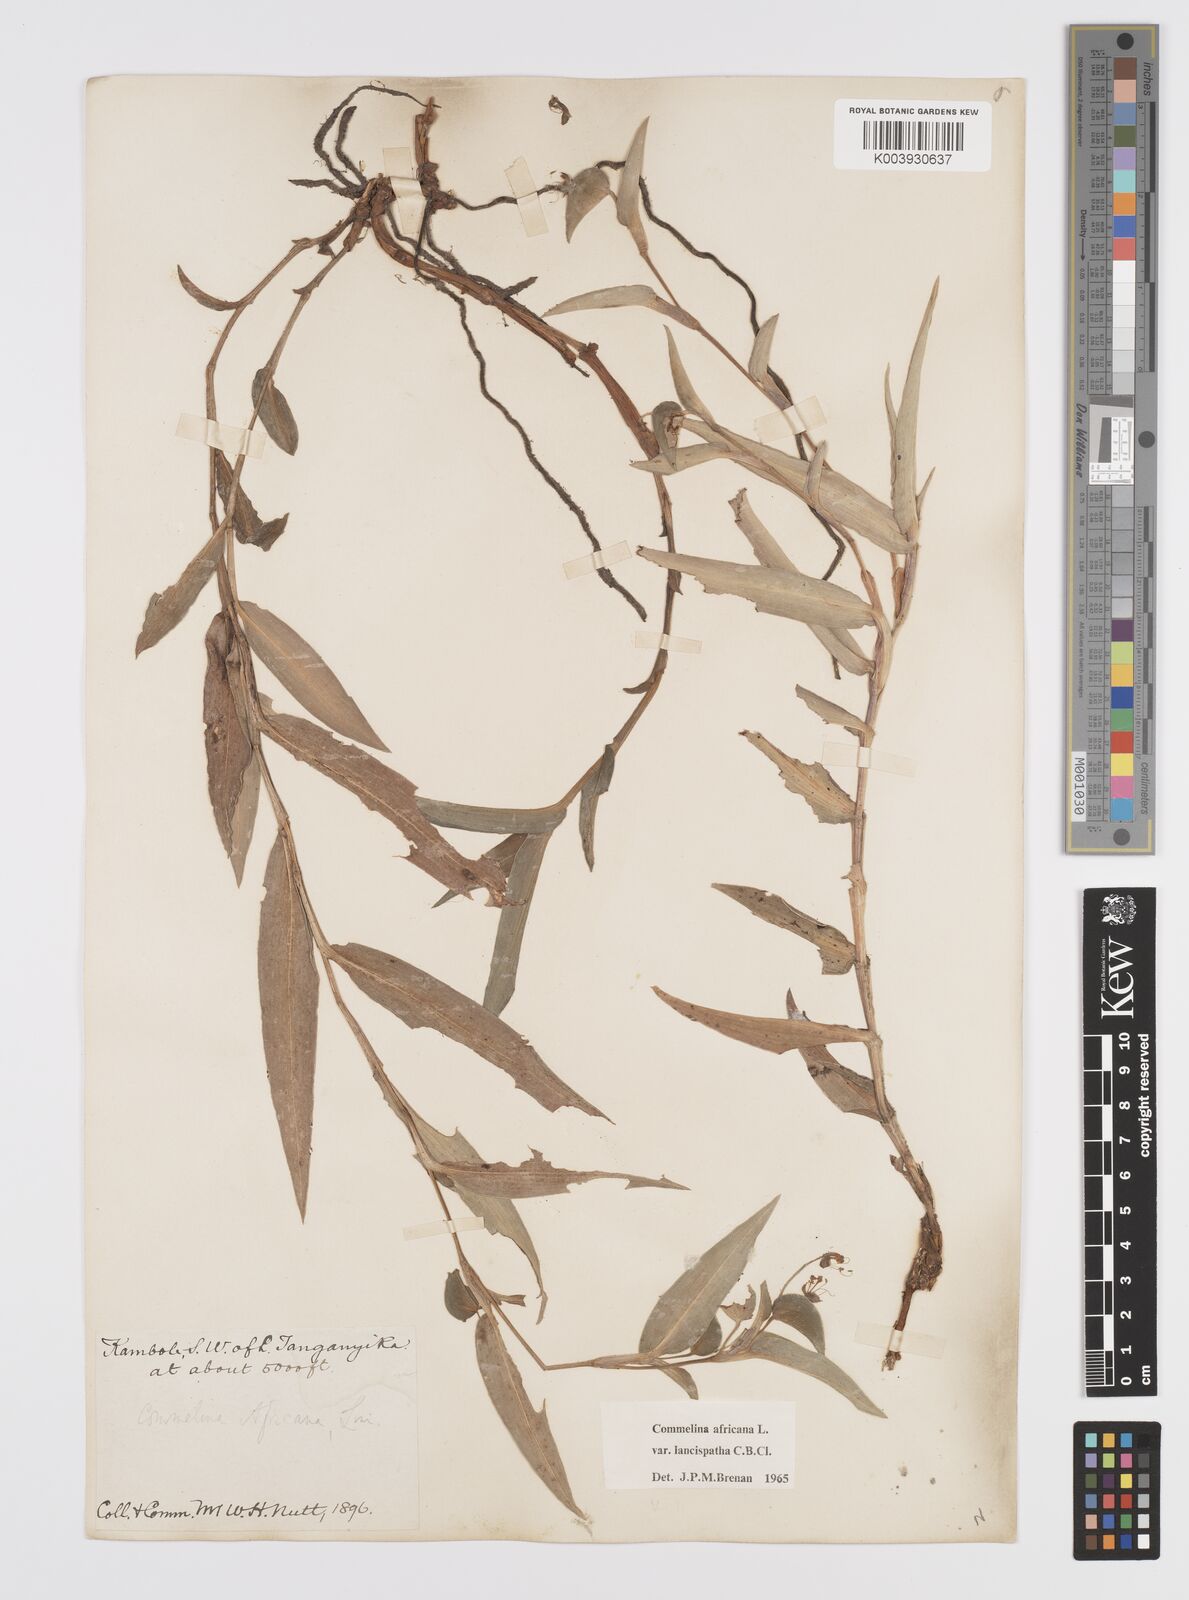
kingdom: Plantae
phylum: Tracheophyta
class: Liliopsida
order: Commelinales
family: Commelinaceae
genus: Commelina
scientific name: Commelina africana
